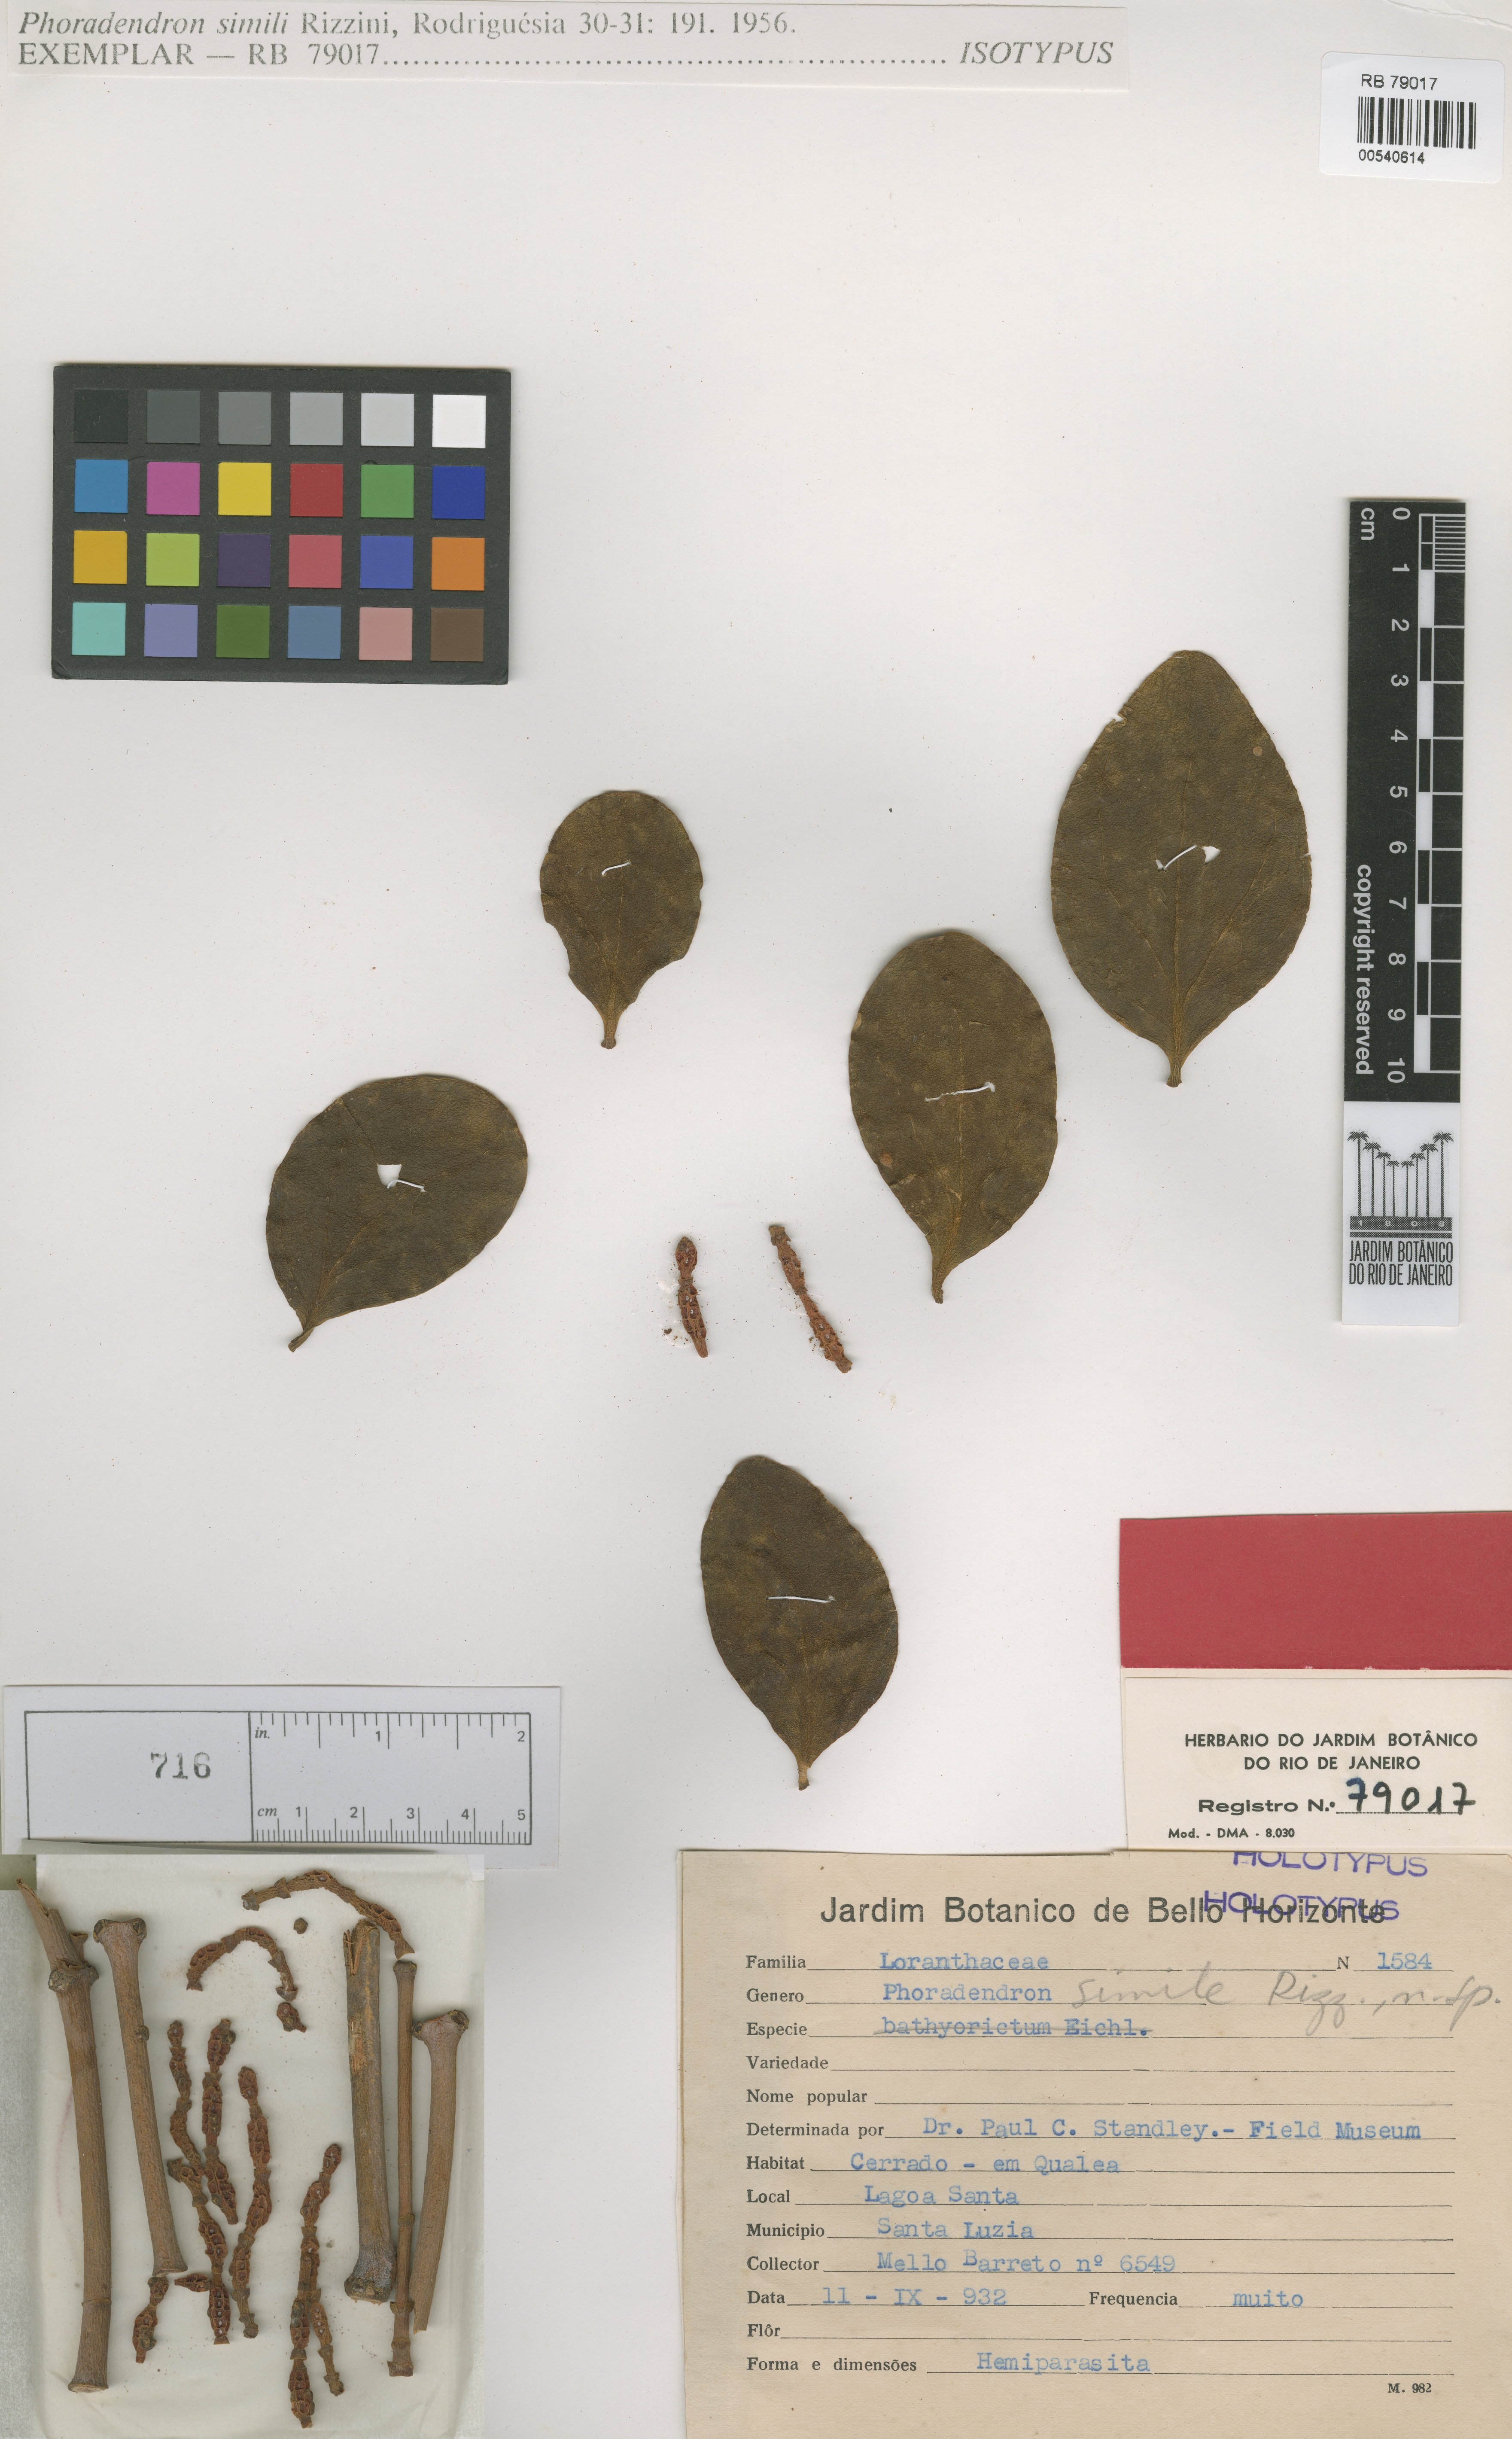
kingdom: Plantae
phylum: Tracheophyta
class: Magnoliopsida
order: Santalales
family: Viscaceae
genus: Dendrophthora
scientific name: Dendrophthora warmingii
